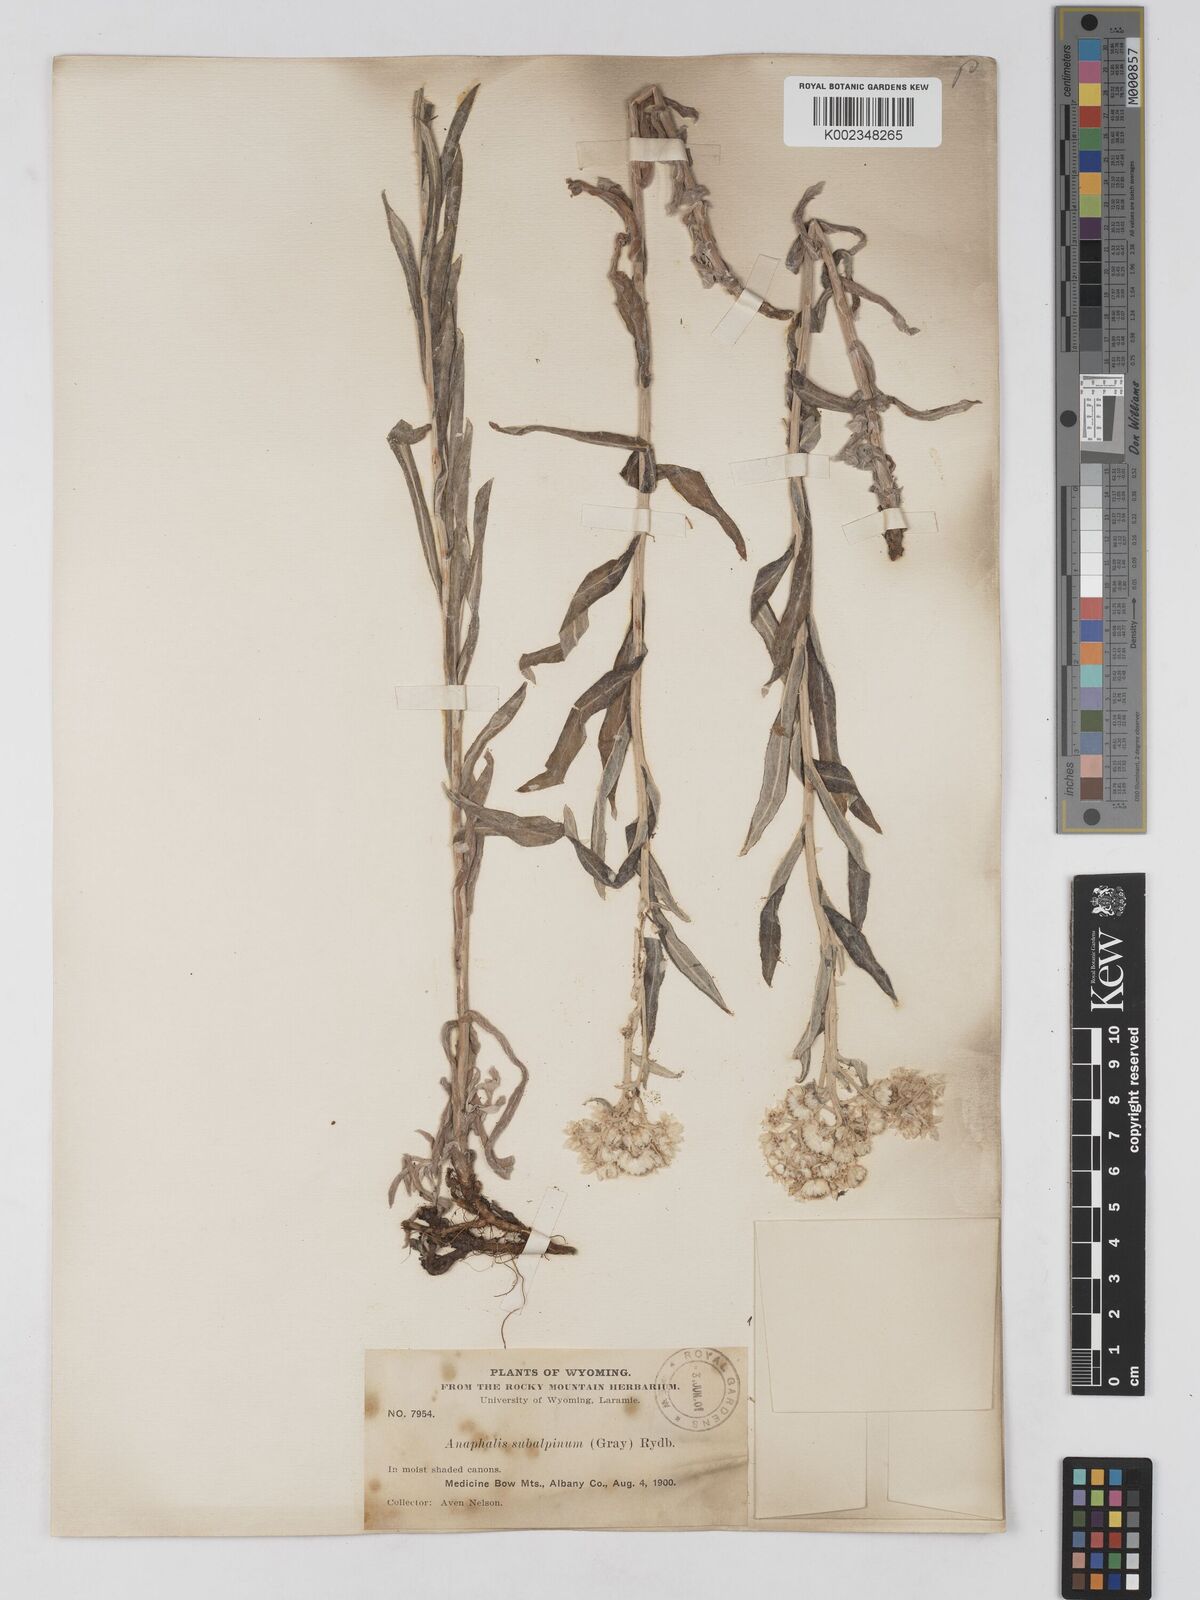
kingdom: Plantae
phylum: Tracheophyta
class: Magnoliopsida
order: Asterales
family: Asteraceae
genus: Anaphalis
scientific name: Anaphalis margaritacea
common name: Pearly everlasting
